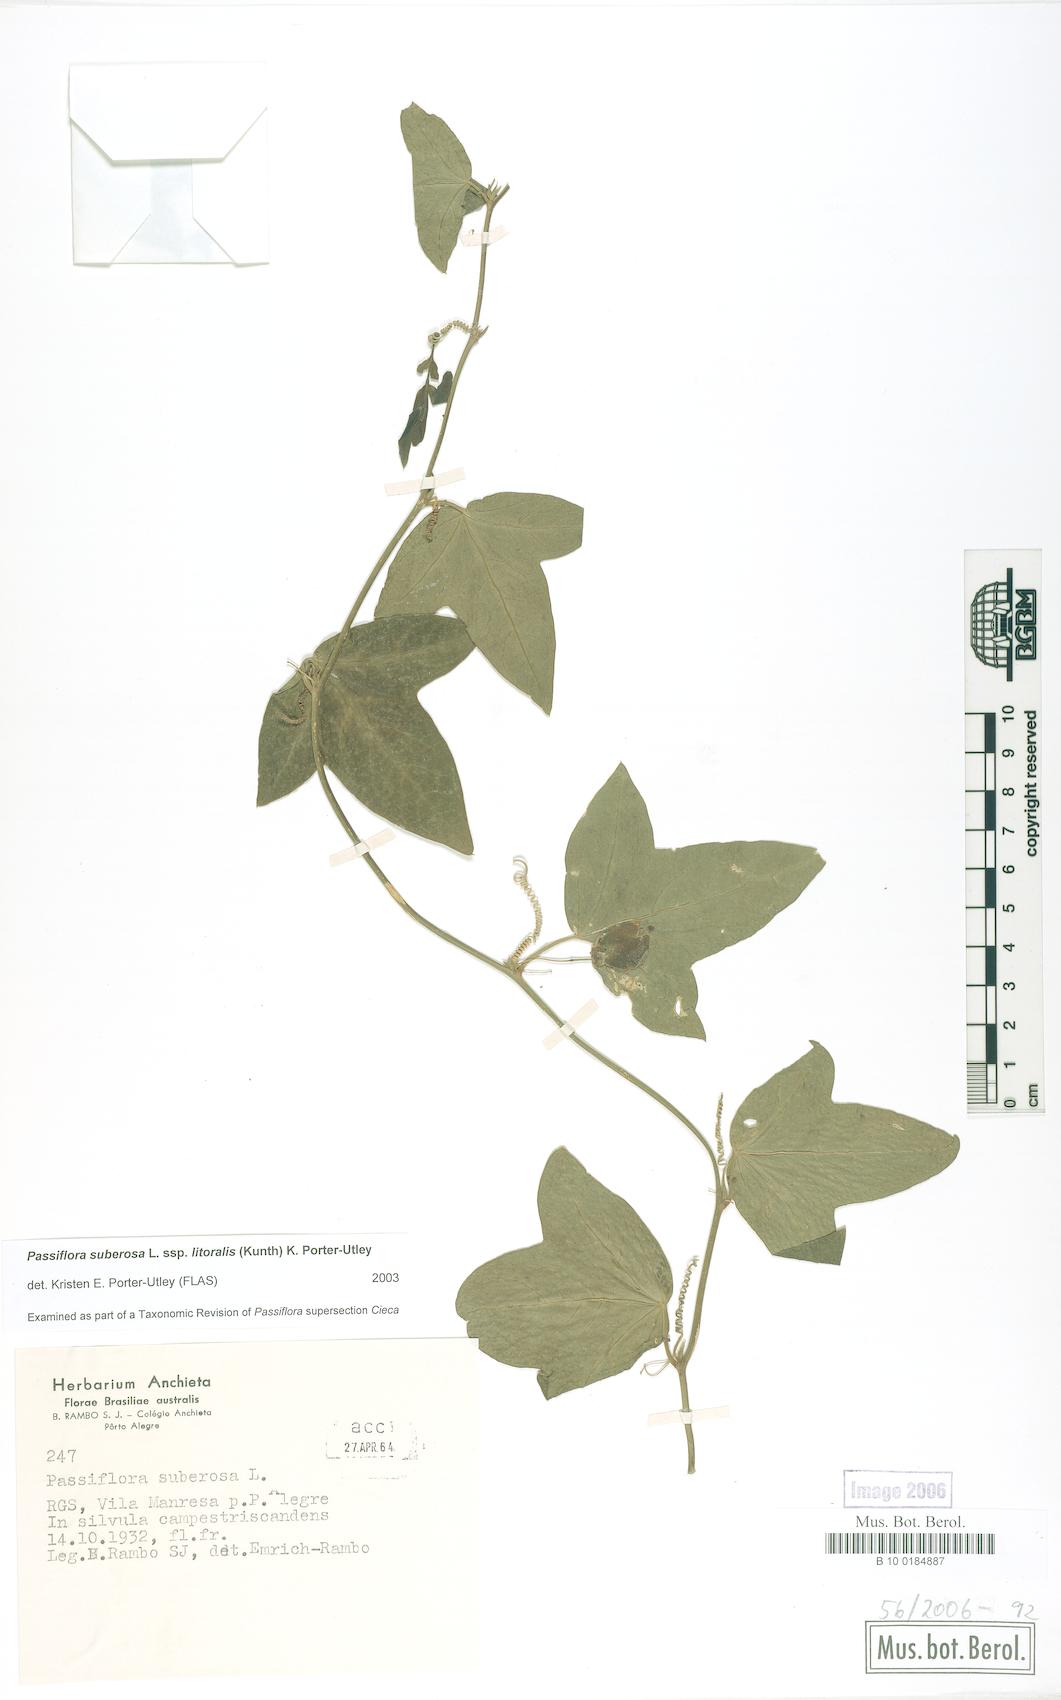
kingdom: Plantae
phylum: Tracheophyta
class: Magnoliopsida
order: Malpighiales
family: Passifloraceae
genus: Passiflora
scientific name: Passiflora suberosa
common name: Wild passionfruit
